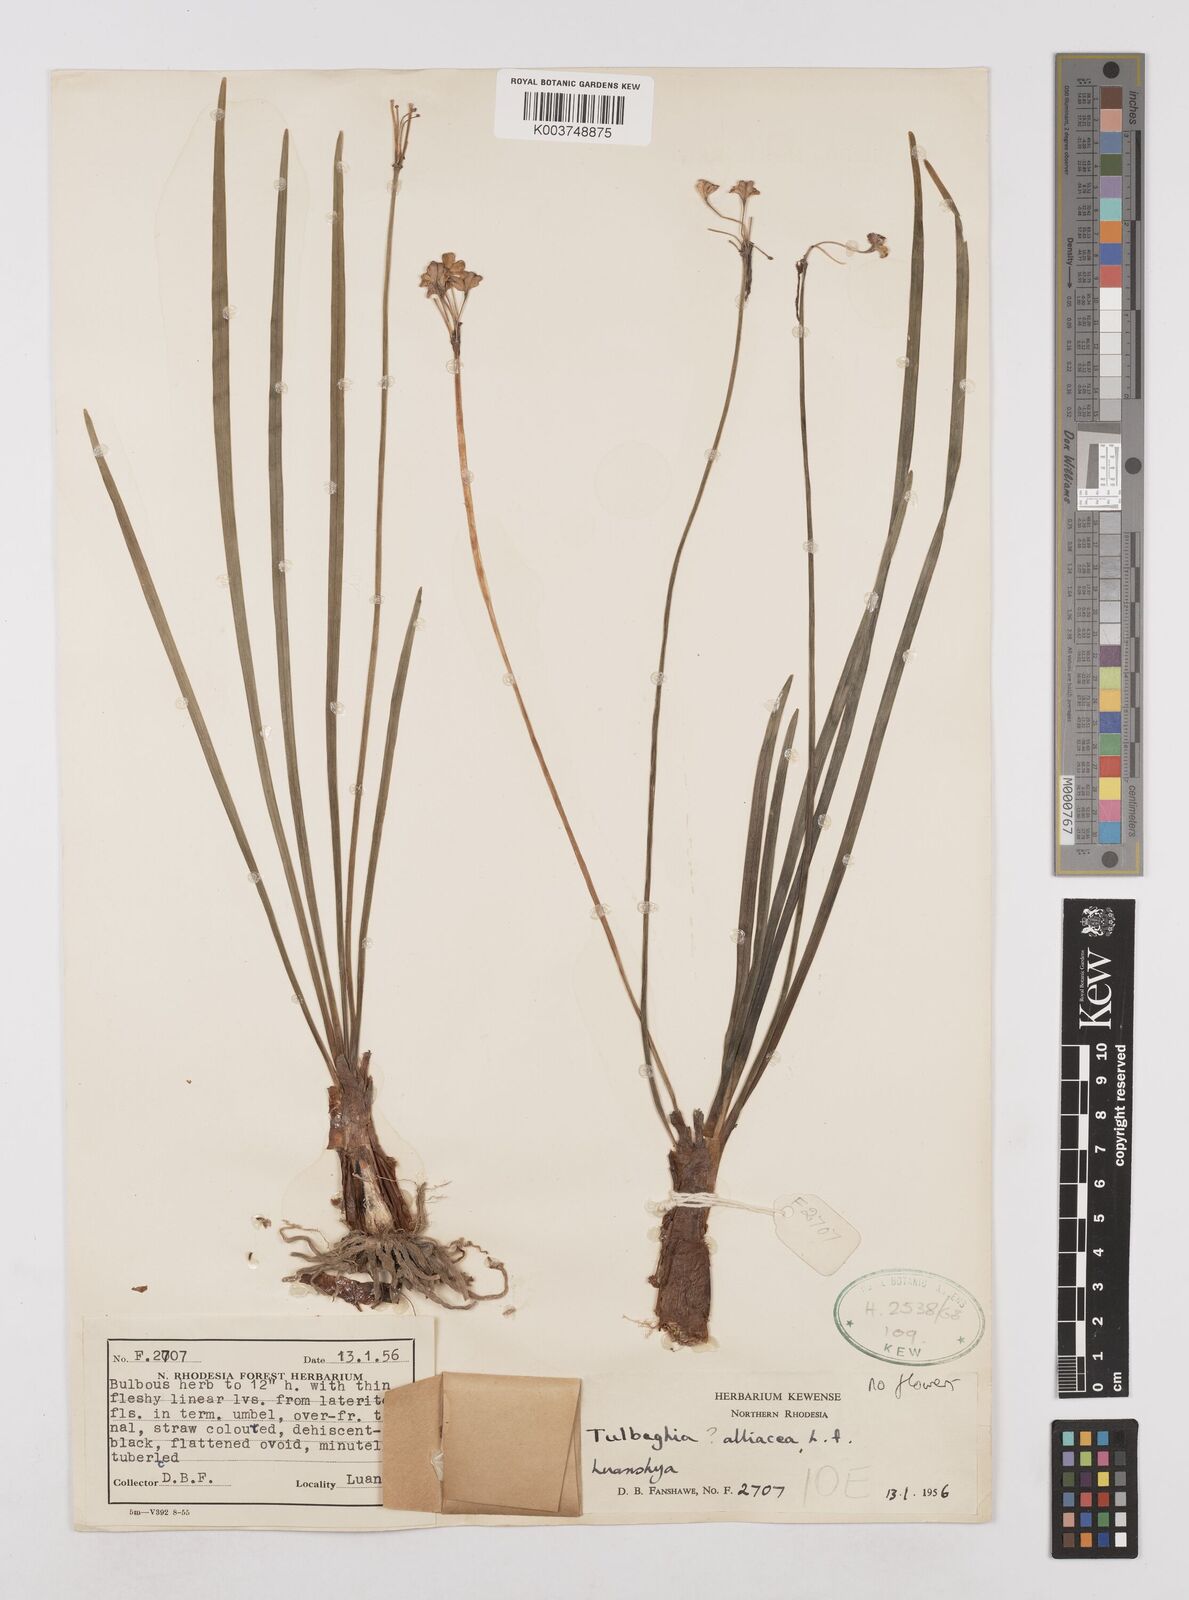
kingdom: Plantae
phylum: Tracheophyta
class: Liliopsida
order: Asparagales
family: Amaryllidaceae
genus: Tulbaghia
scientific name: Tulbaghia alliacea
